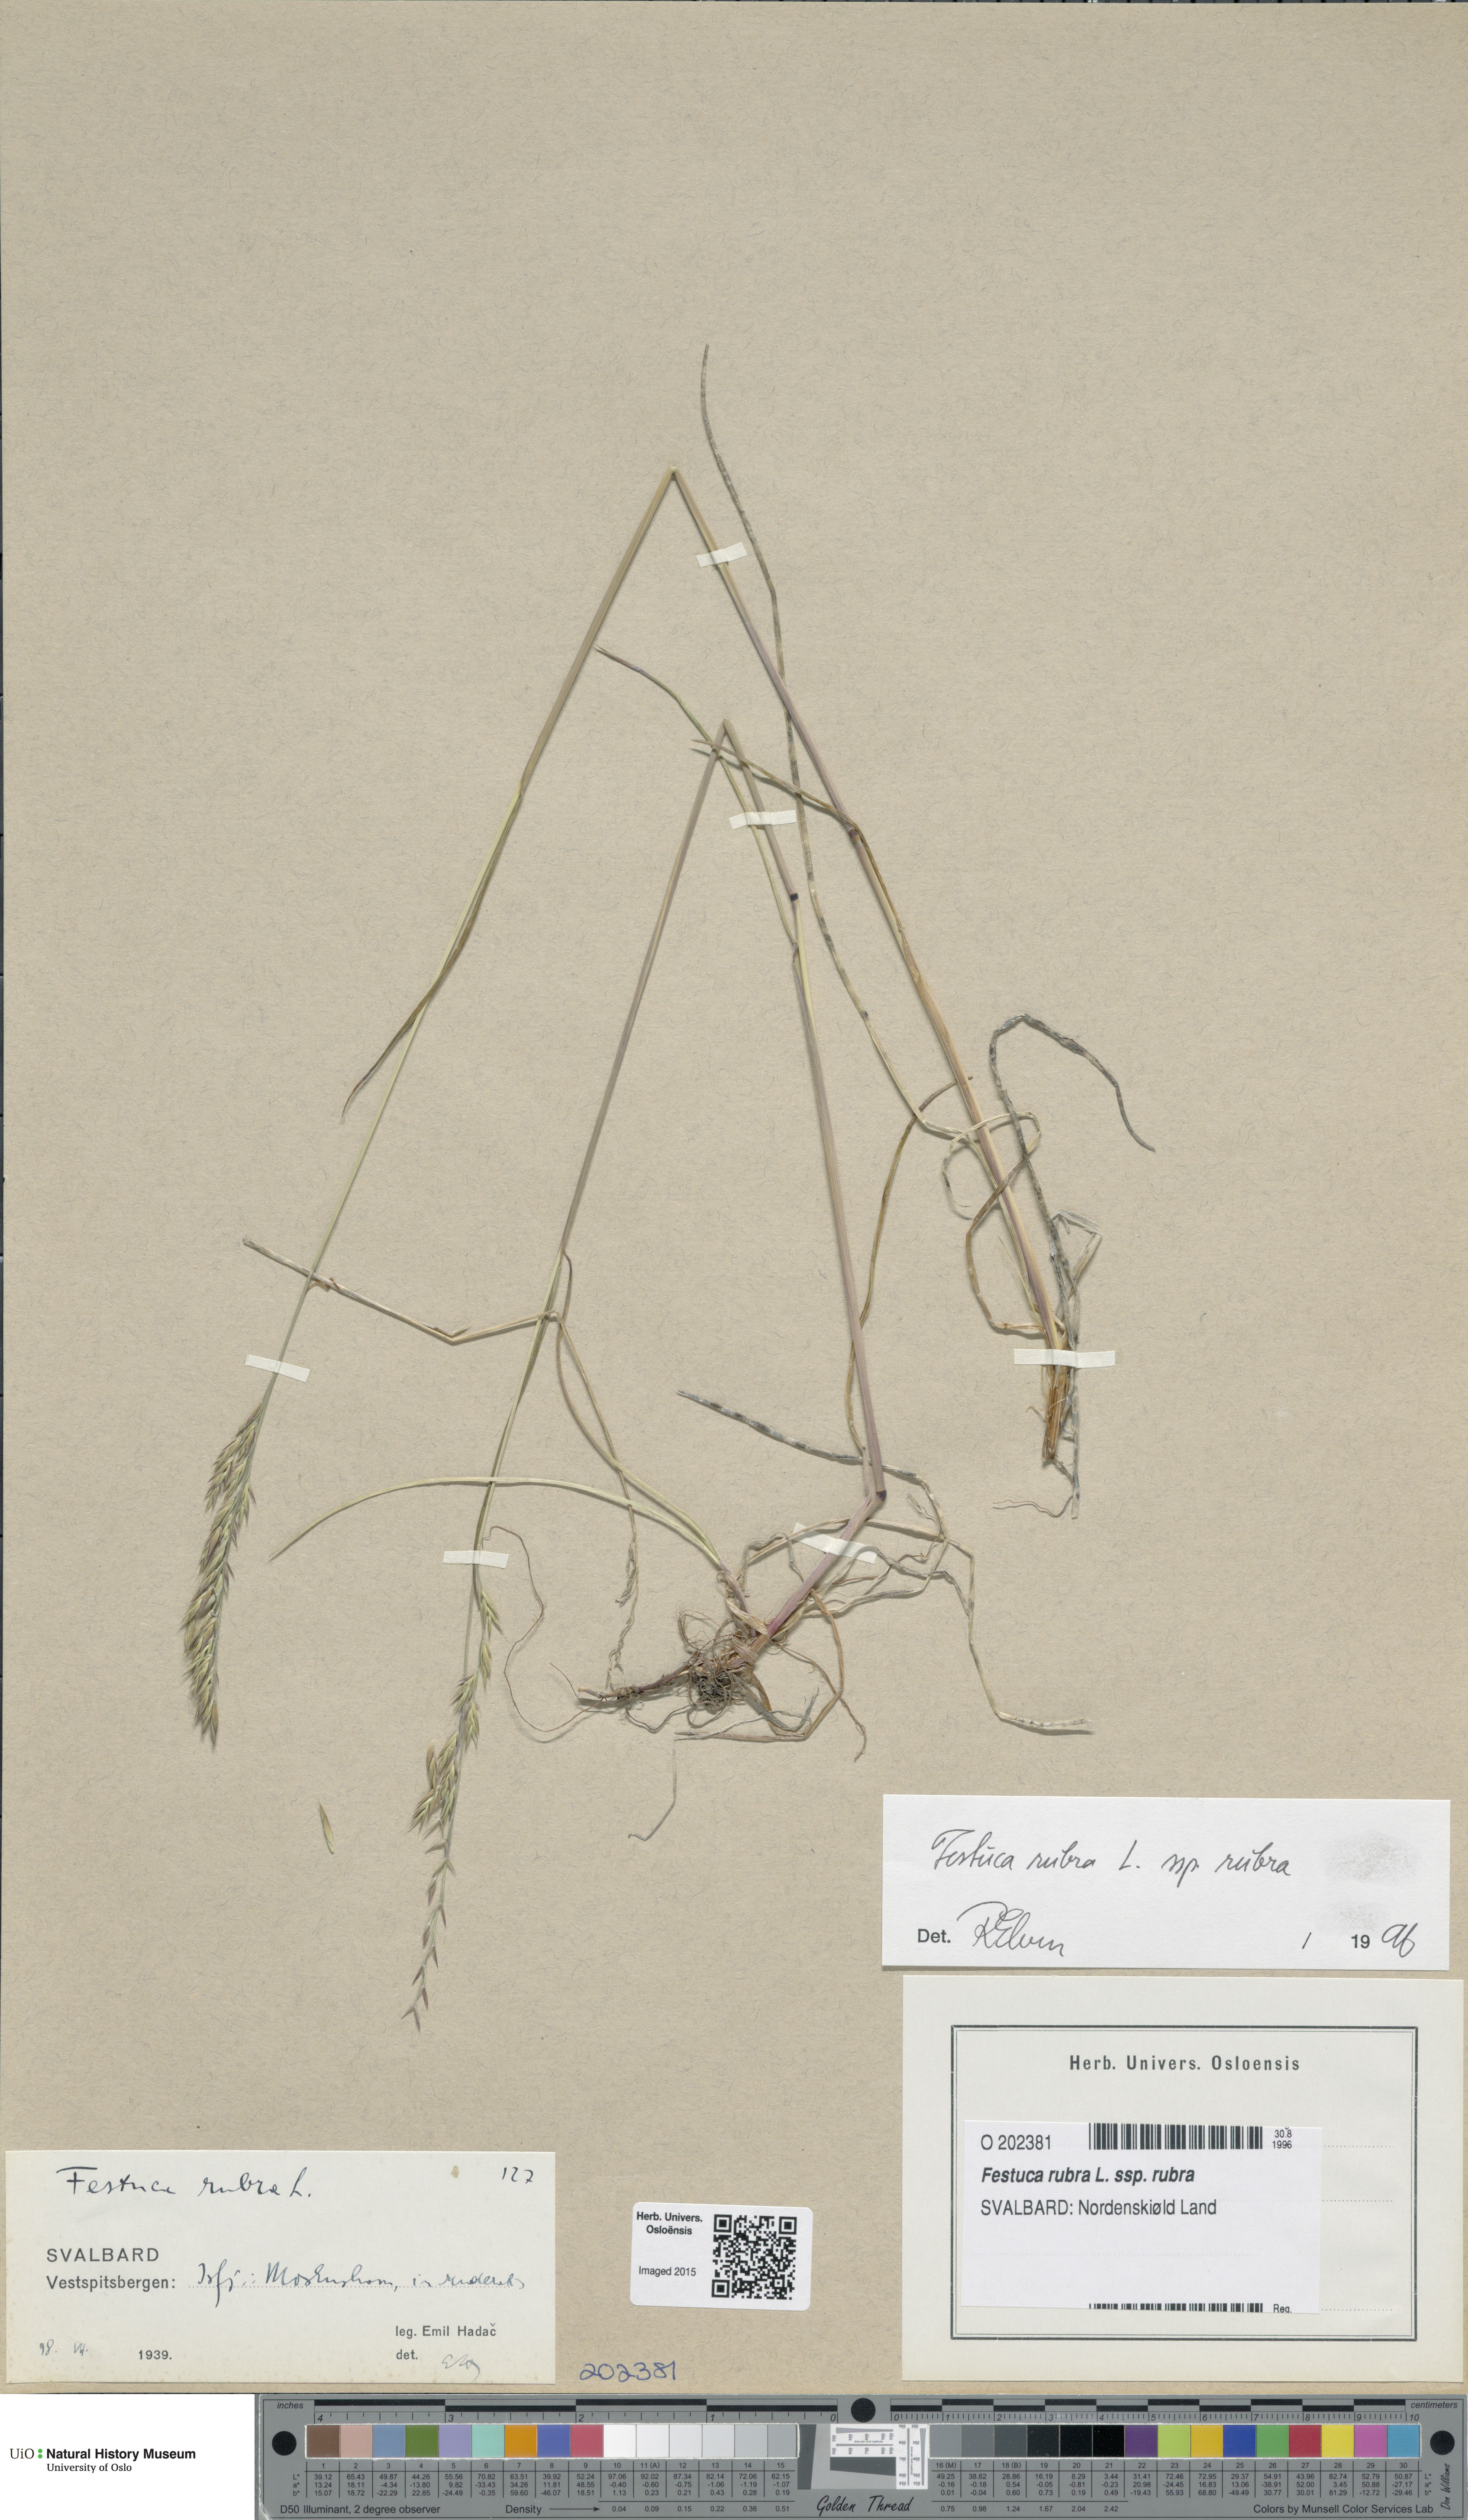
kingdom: Plantae
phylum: Tracheophyta
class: Liliopsida
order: Poales
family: Poaceae
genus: Festuca
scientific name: Festuca rubra
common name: Red fescue
